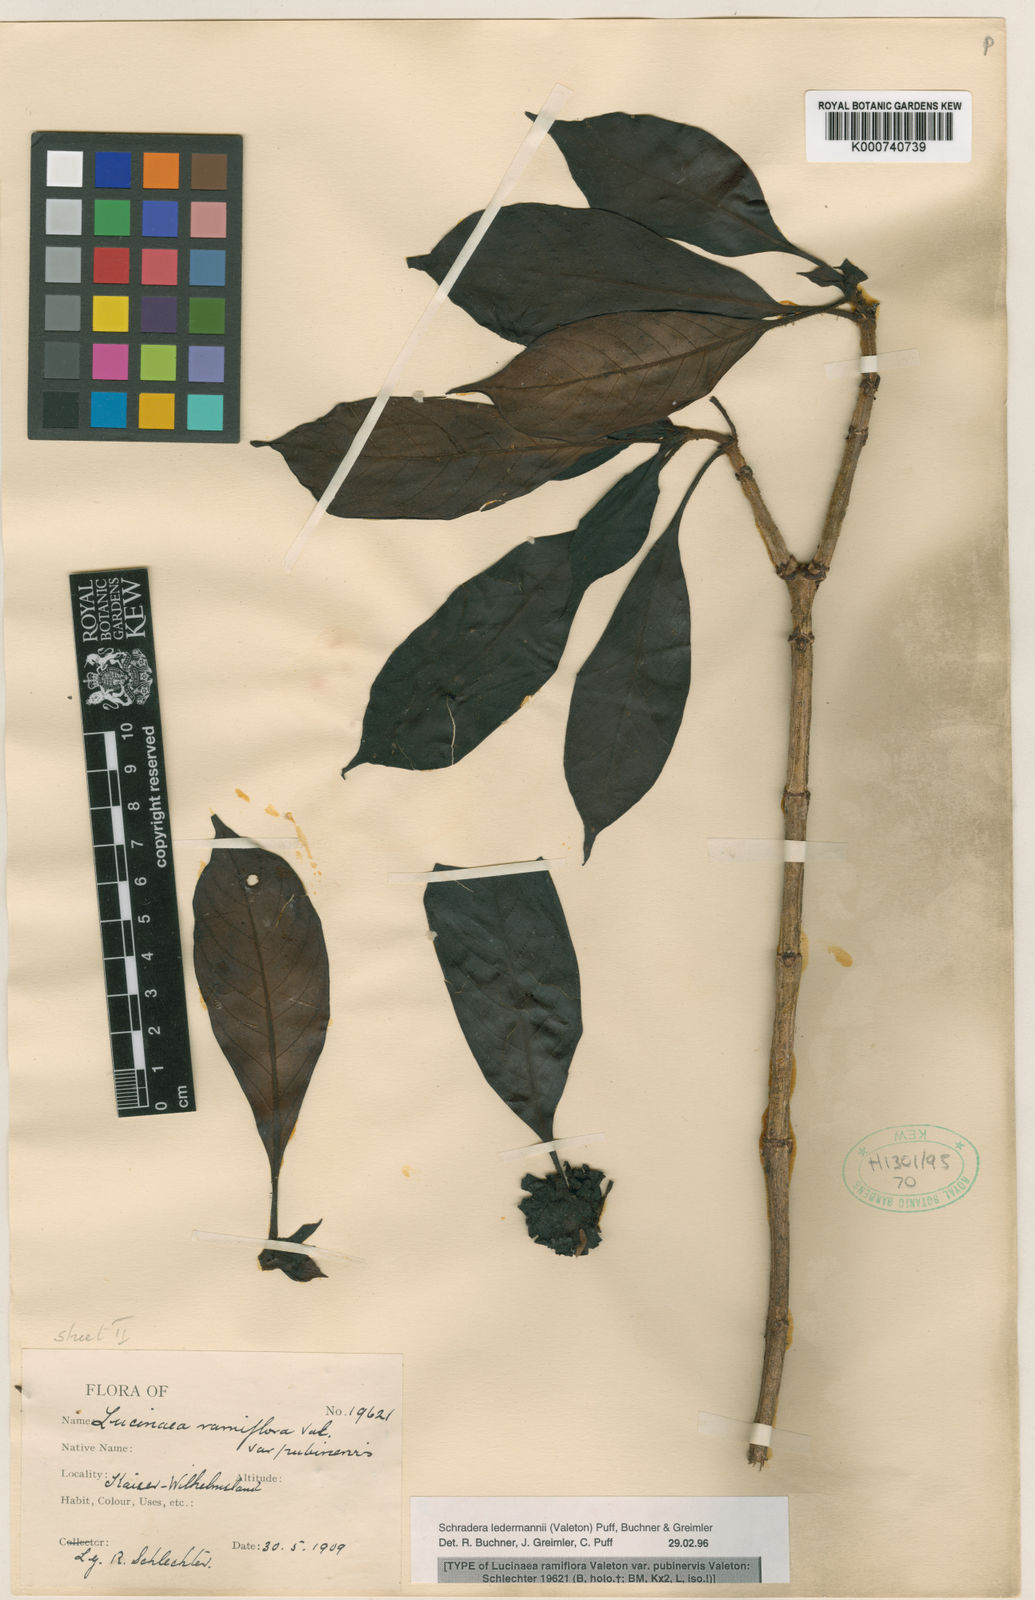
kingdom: Plantae
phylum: Tracheophyta
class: Magnoliopsida
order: Gentianales
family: Rubiaceae
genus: Schradera
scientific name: Schradera ledermannii
